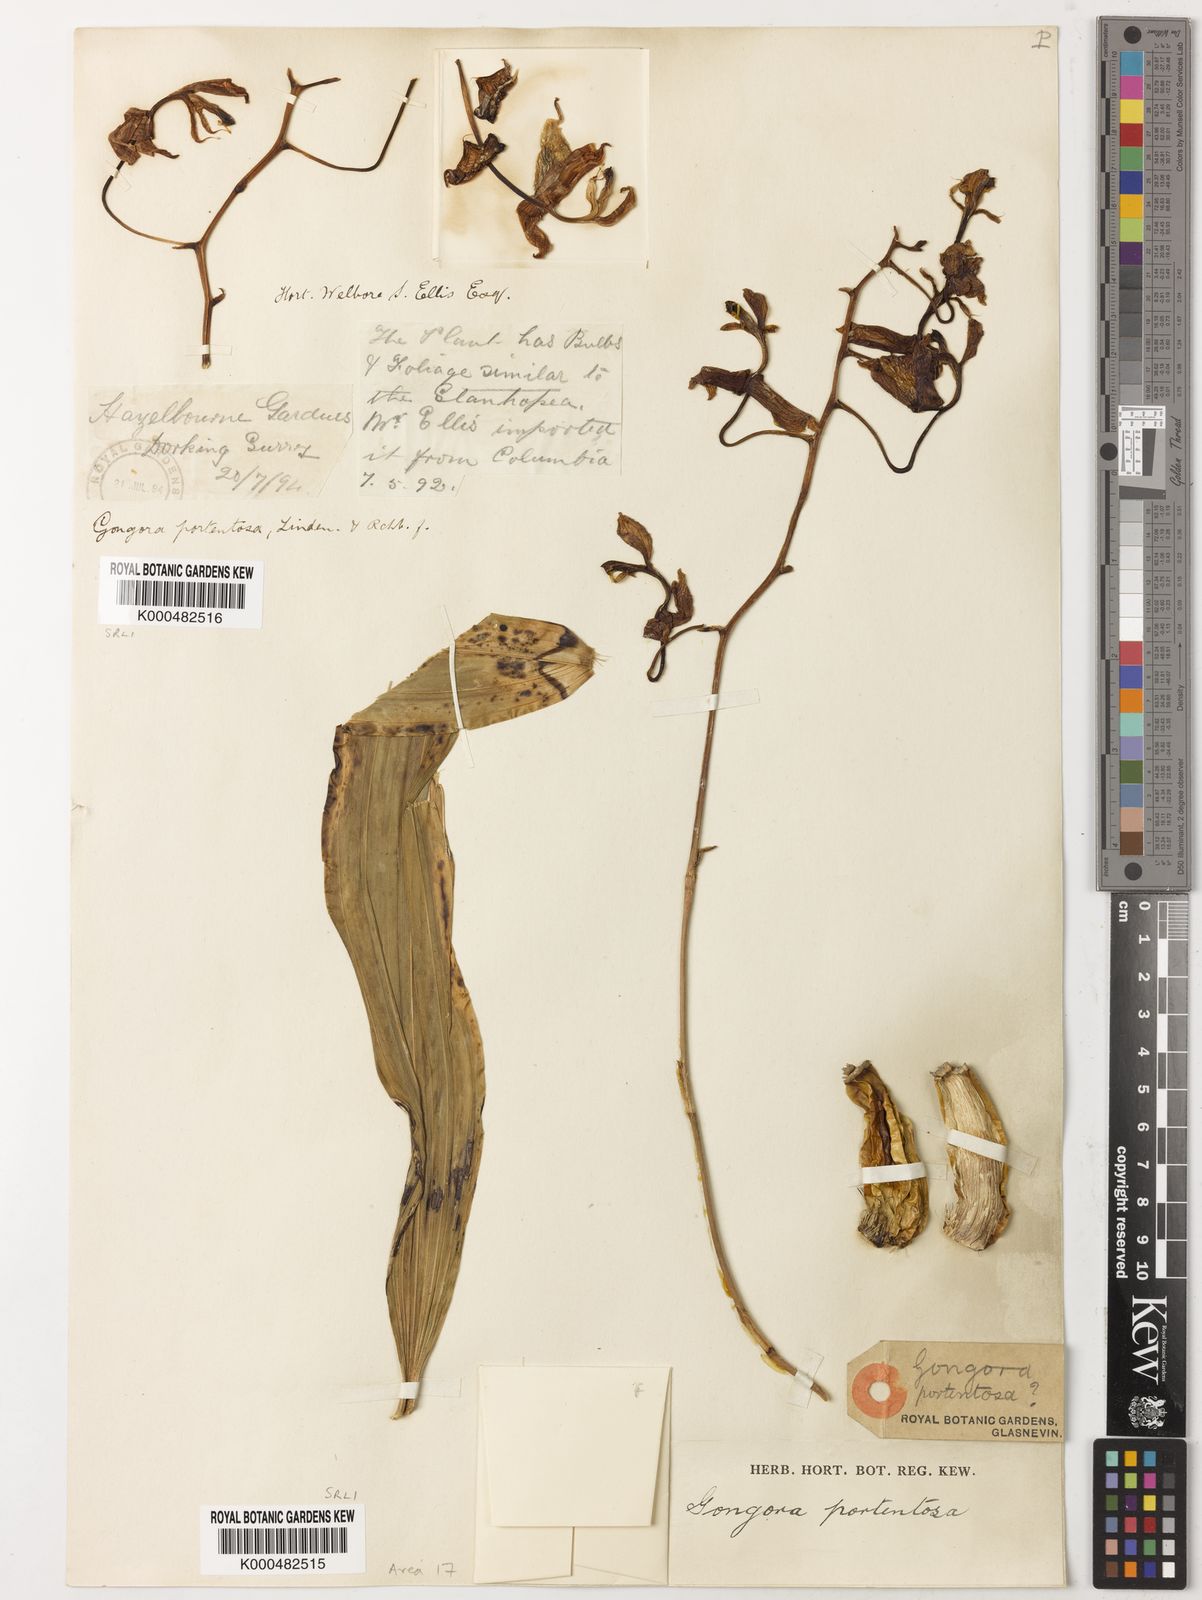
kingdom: Plantae
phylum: Tracheophyta
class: Liliopsida
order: Asparagales
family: Orchidaceae
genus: Gongora
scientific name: Gongora portentosa
